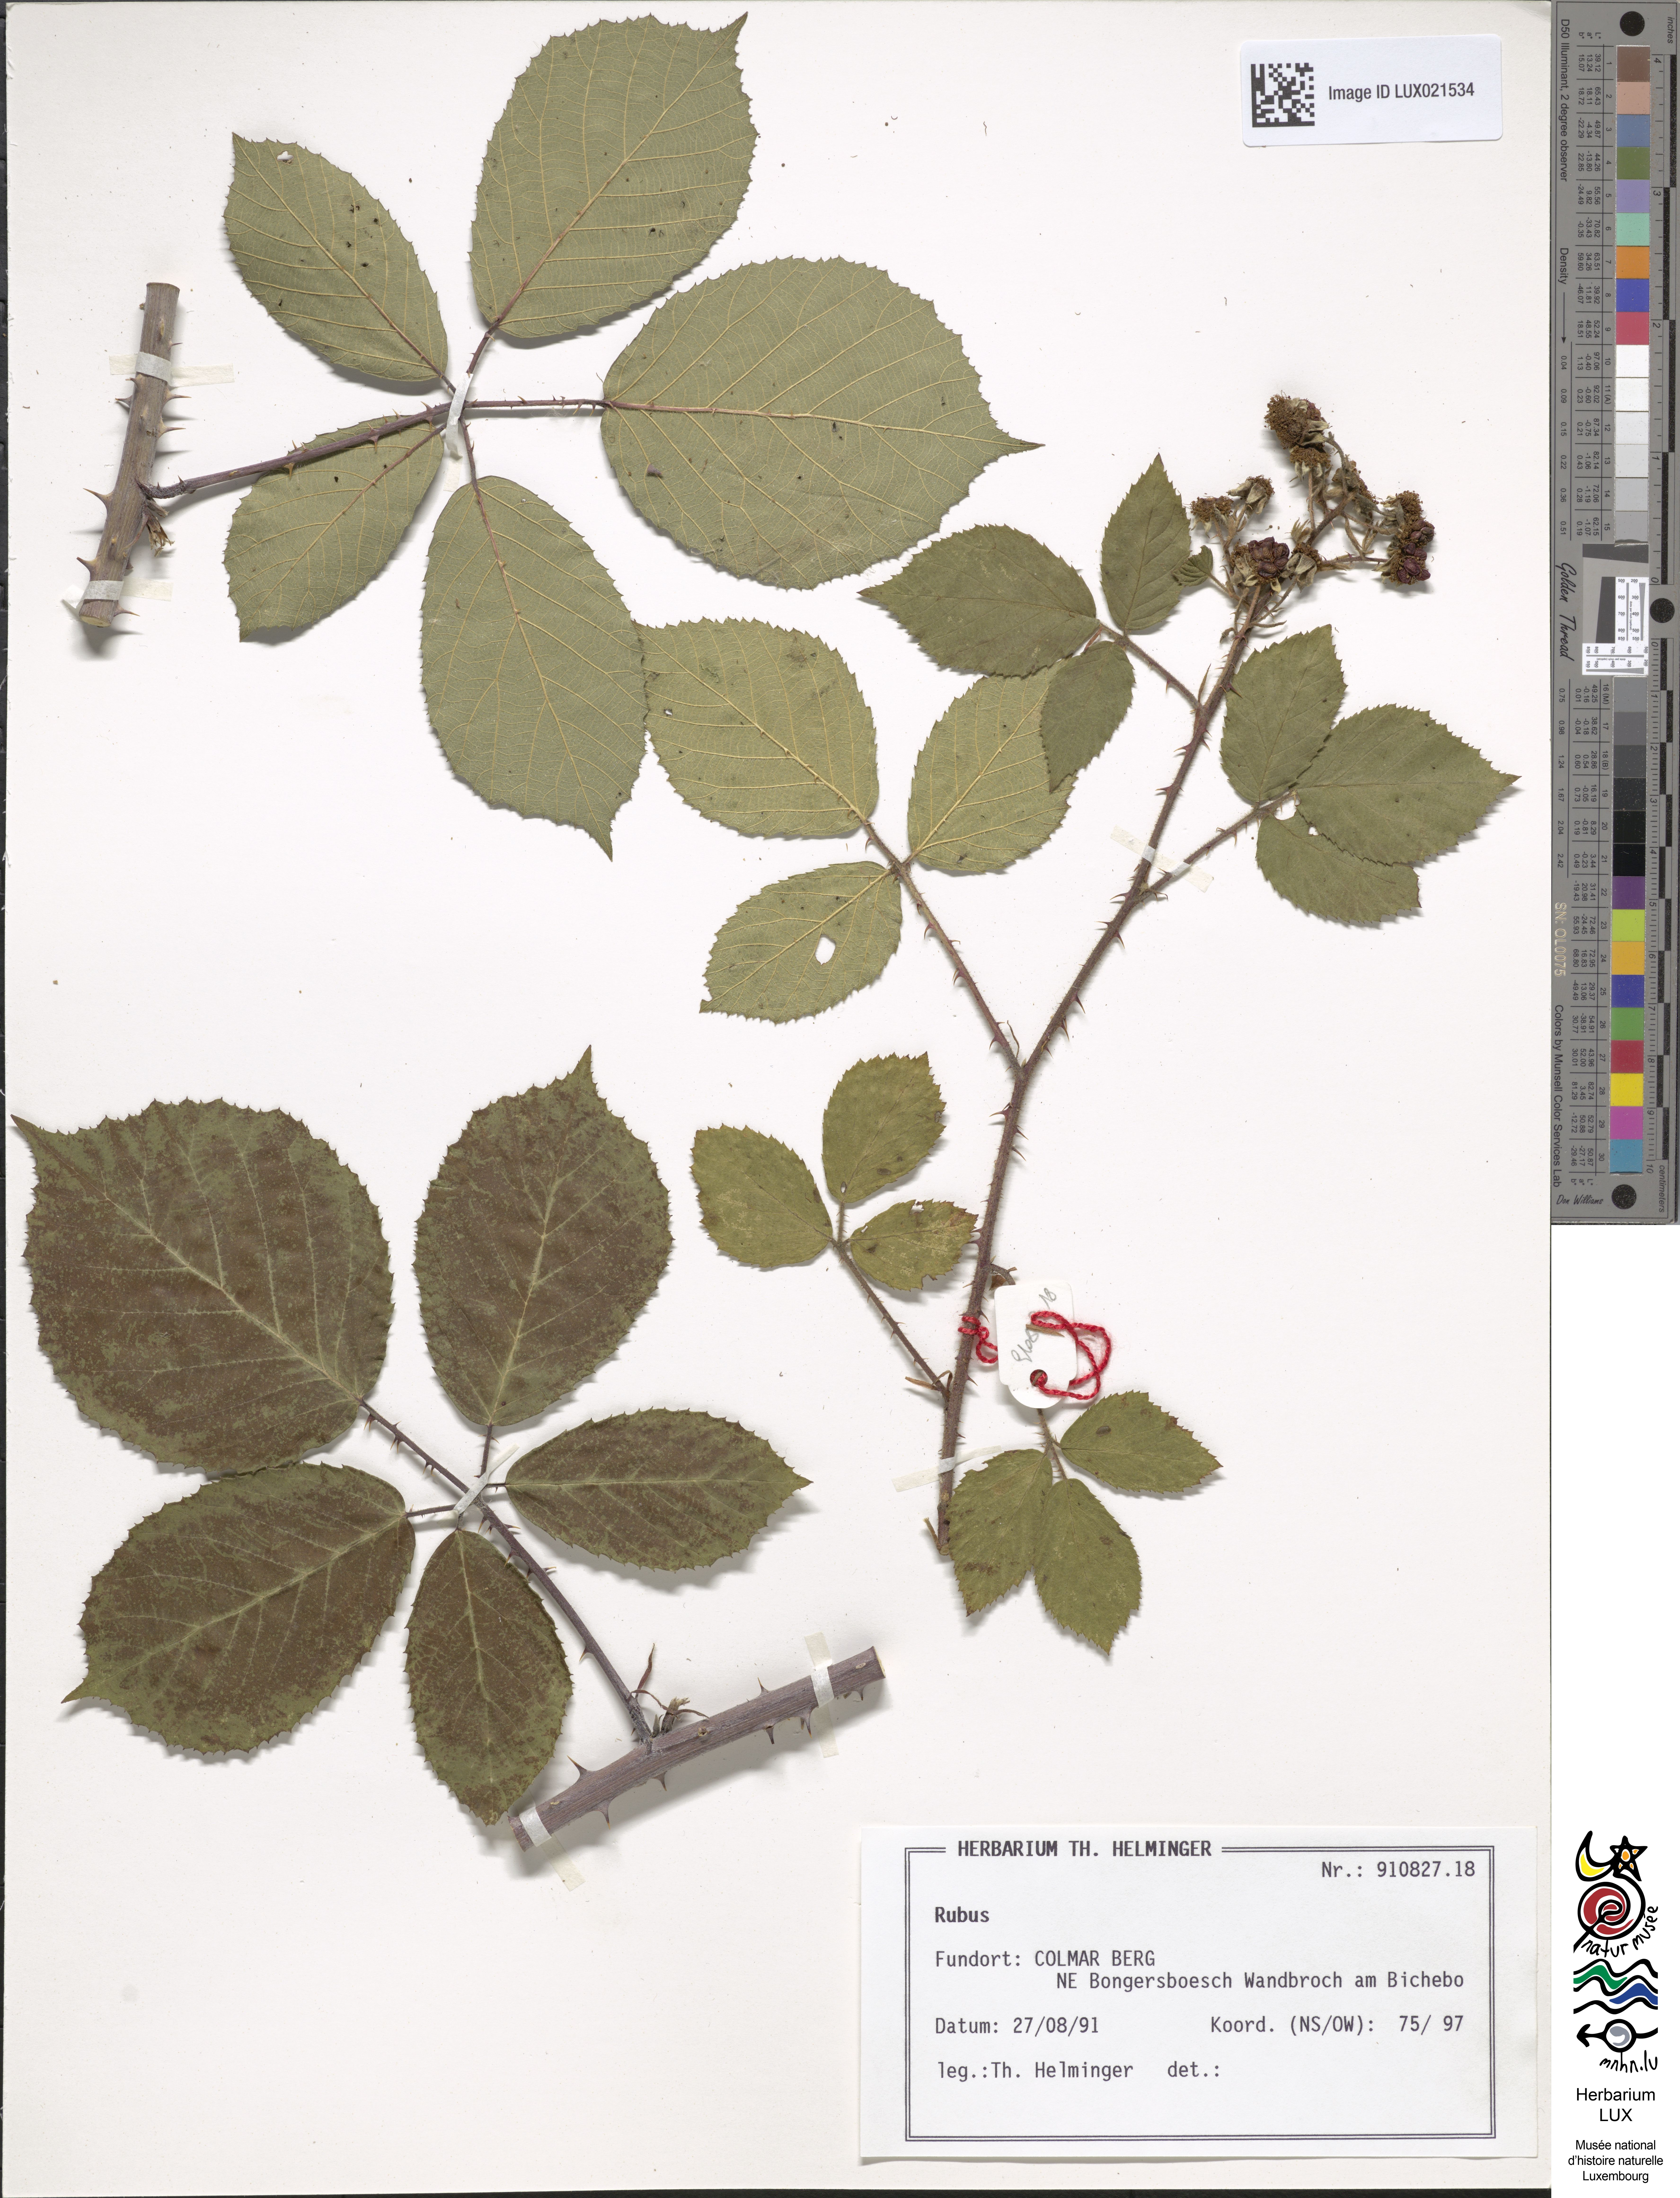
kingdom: Plantae
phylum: Tracheophyta
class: Magnoliopsida
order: Rosales
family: Rosaceae
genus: Rubus
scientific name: Rubus vestitus
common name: European blackberry
